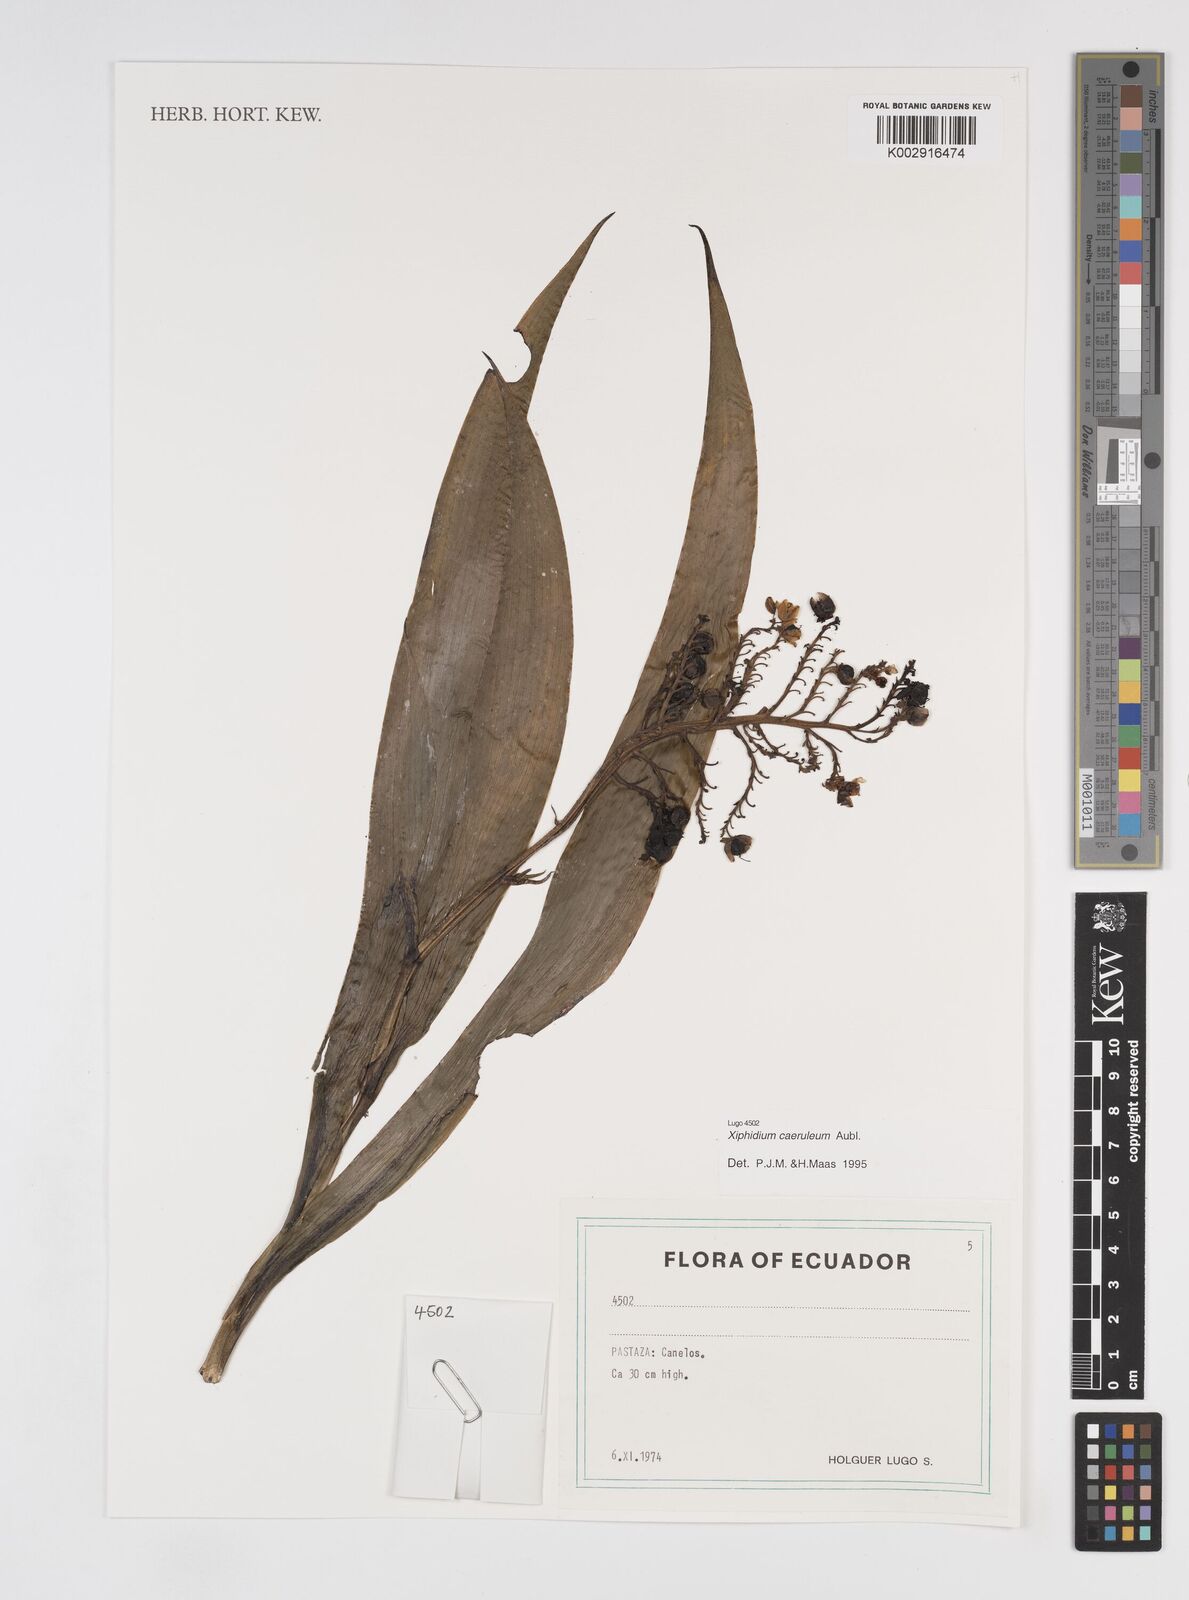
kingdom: Plantae
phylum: Tracheophyta
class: Liliopsida
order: Commelinales
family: Haemodoraceae
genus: Xiphidium
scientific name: Xiphidium caeruleum
